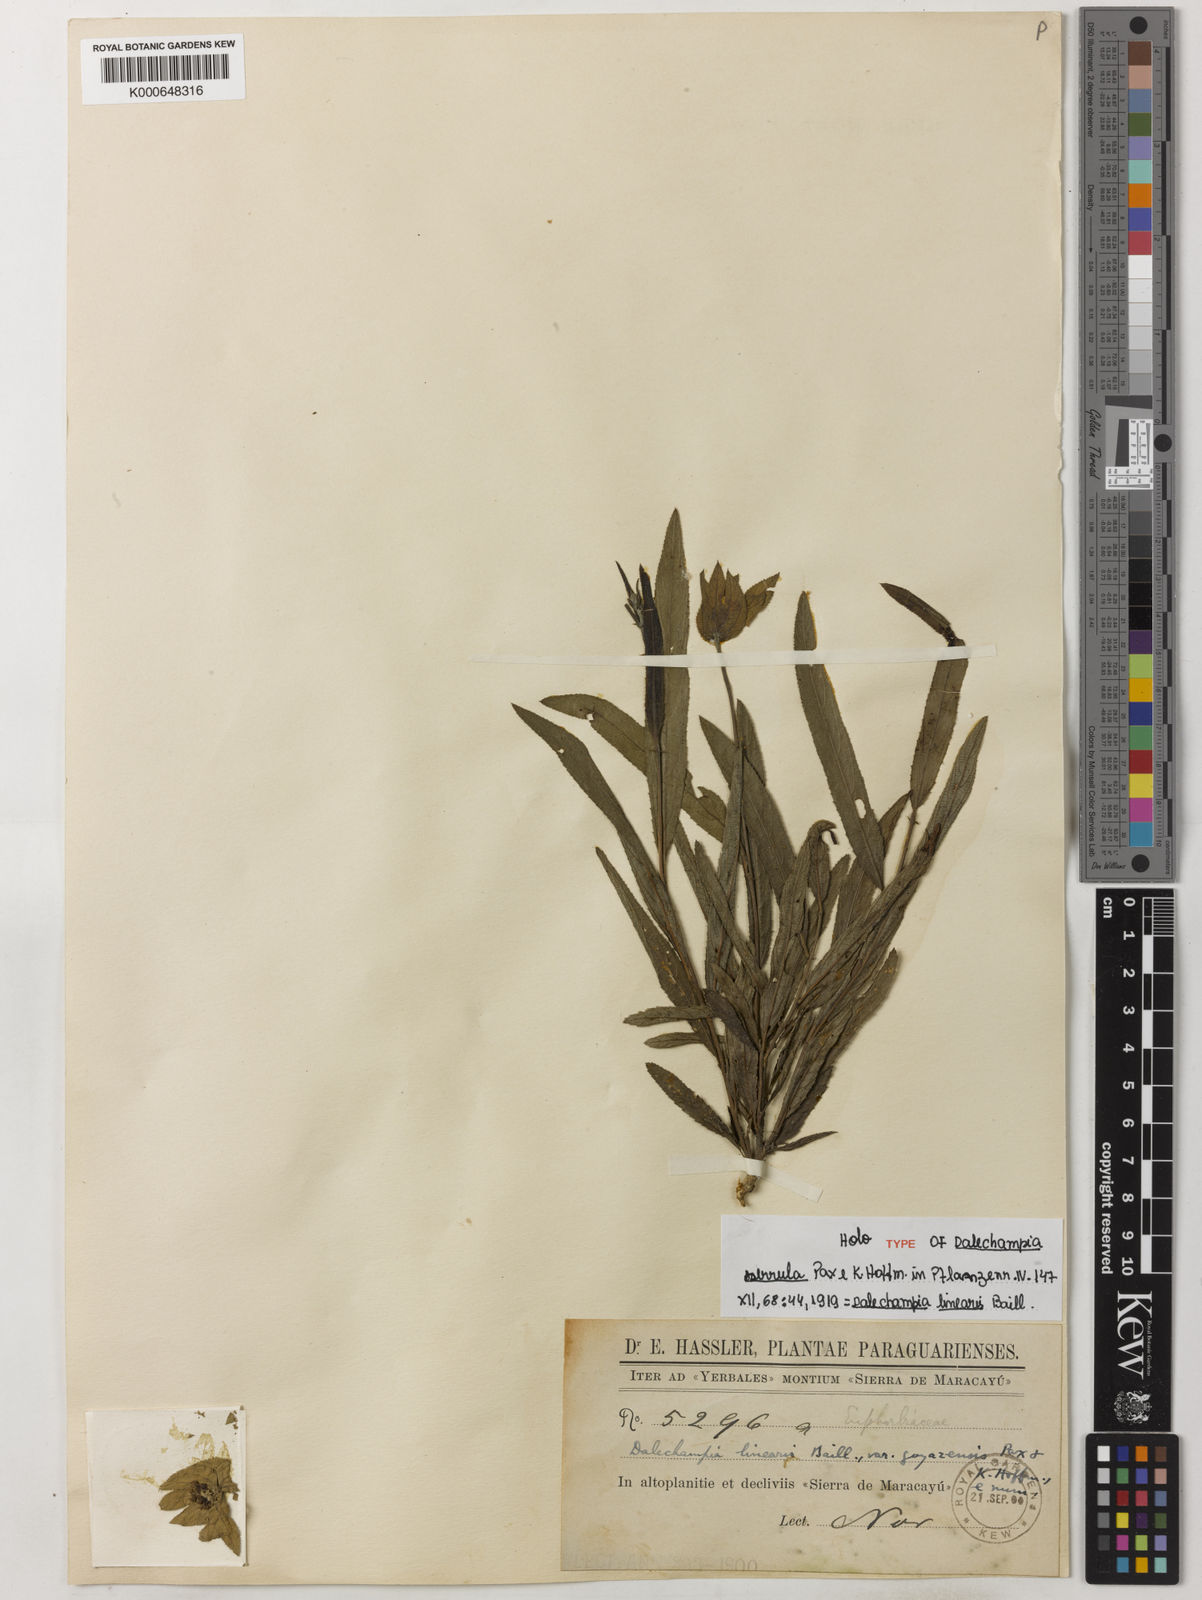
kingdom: Plantae
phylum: Tracheophyta
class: Magnoliopsida
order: Malpighiales
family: Euphorbiaceae
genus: Dalechampia
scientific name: Dalechampia linearis
